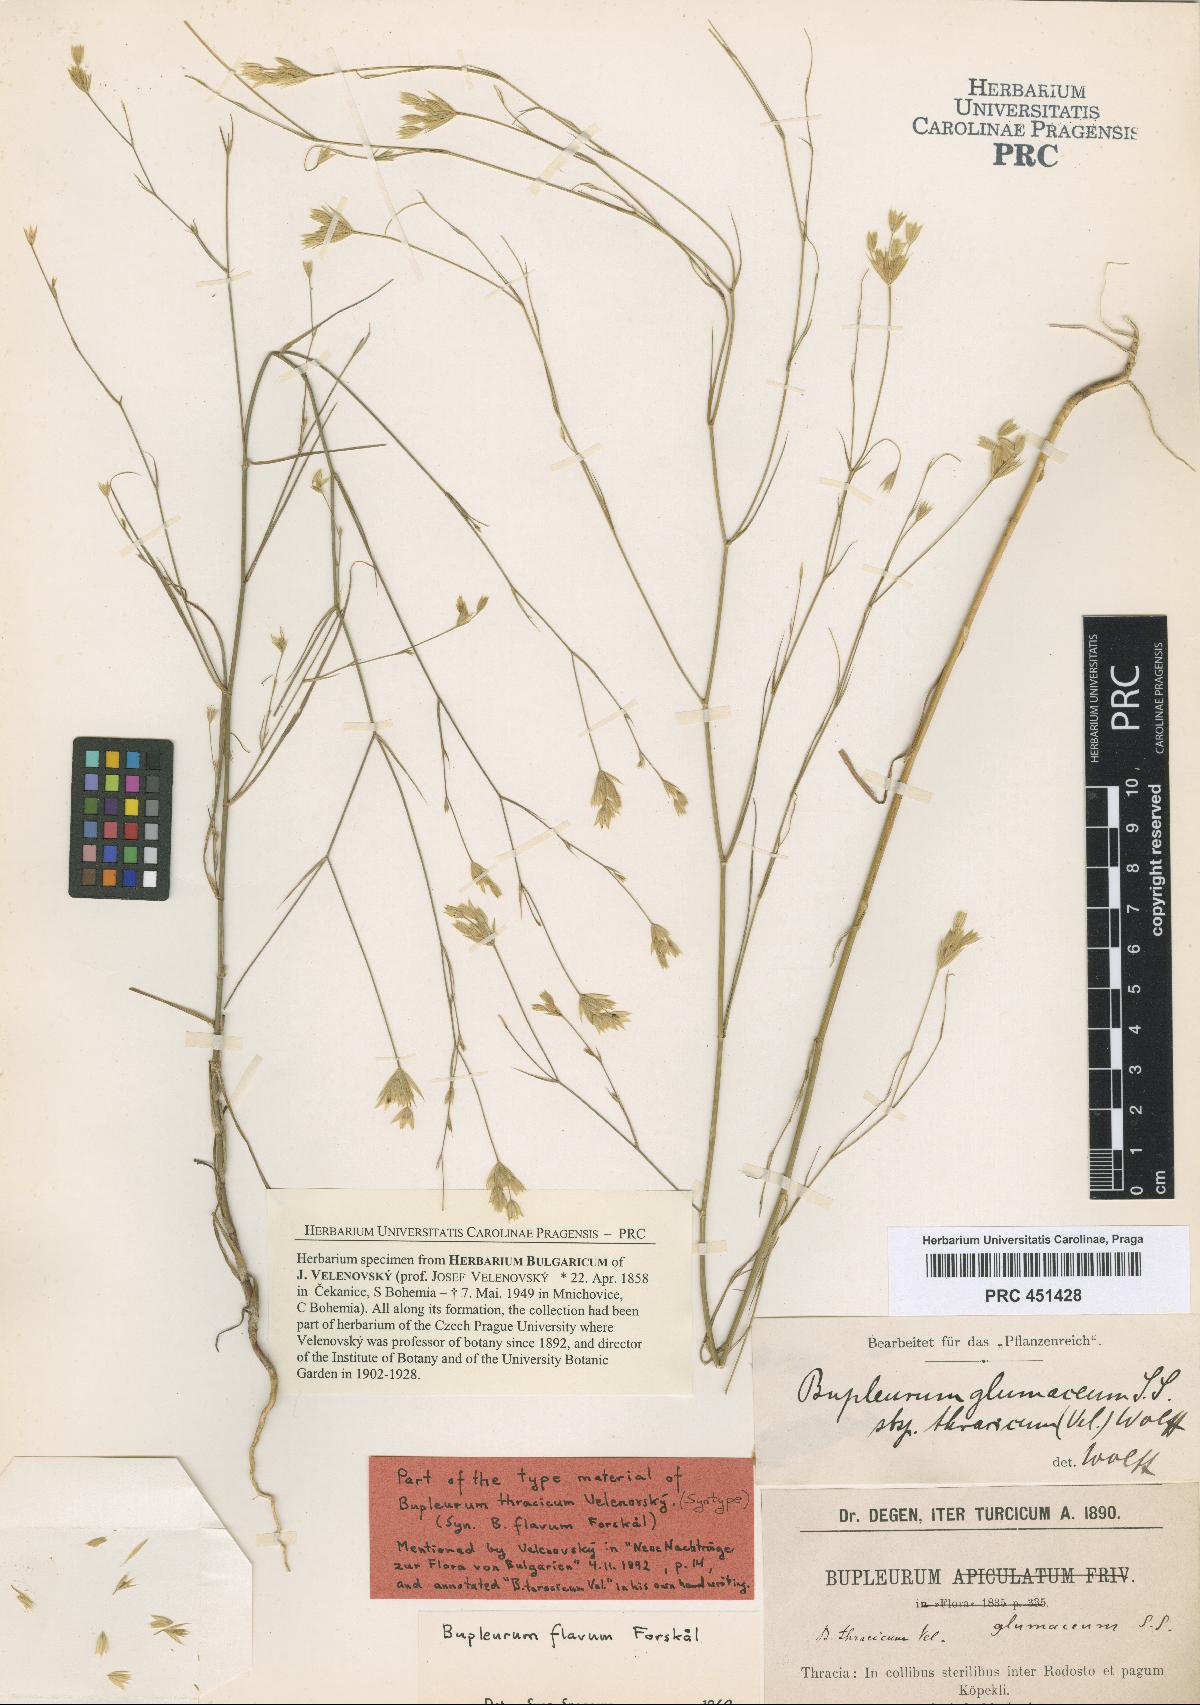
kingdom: Plantae
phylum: Tracheophyta
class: Magnoliopsida
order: Apiales
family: Apiaceae
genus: Bupleurum
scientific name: Bupleurum flavum
